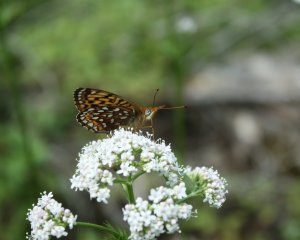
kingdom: Animalia
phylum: Arthropoda
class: Insecta
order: Lepidoptera
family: Nymphalidae
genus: Speyeria
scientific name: Speyeria atlantis
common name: Atlantis Fritillary
